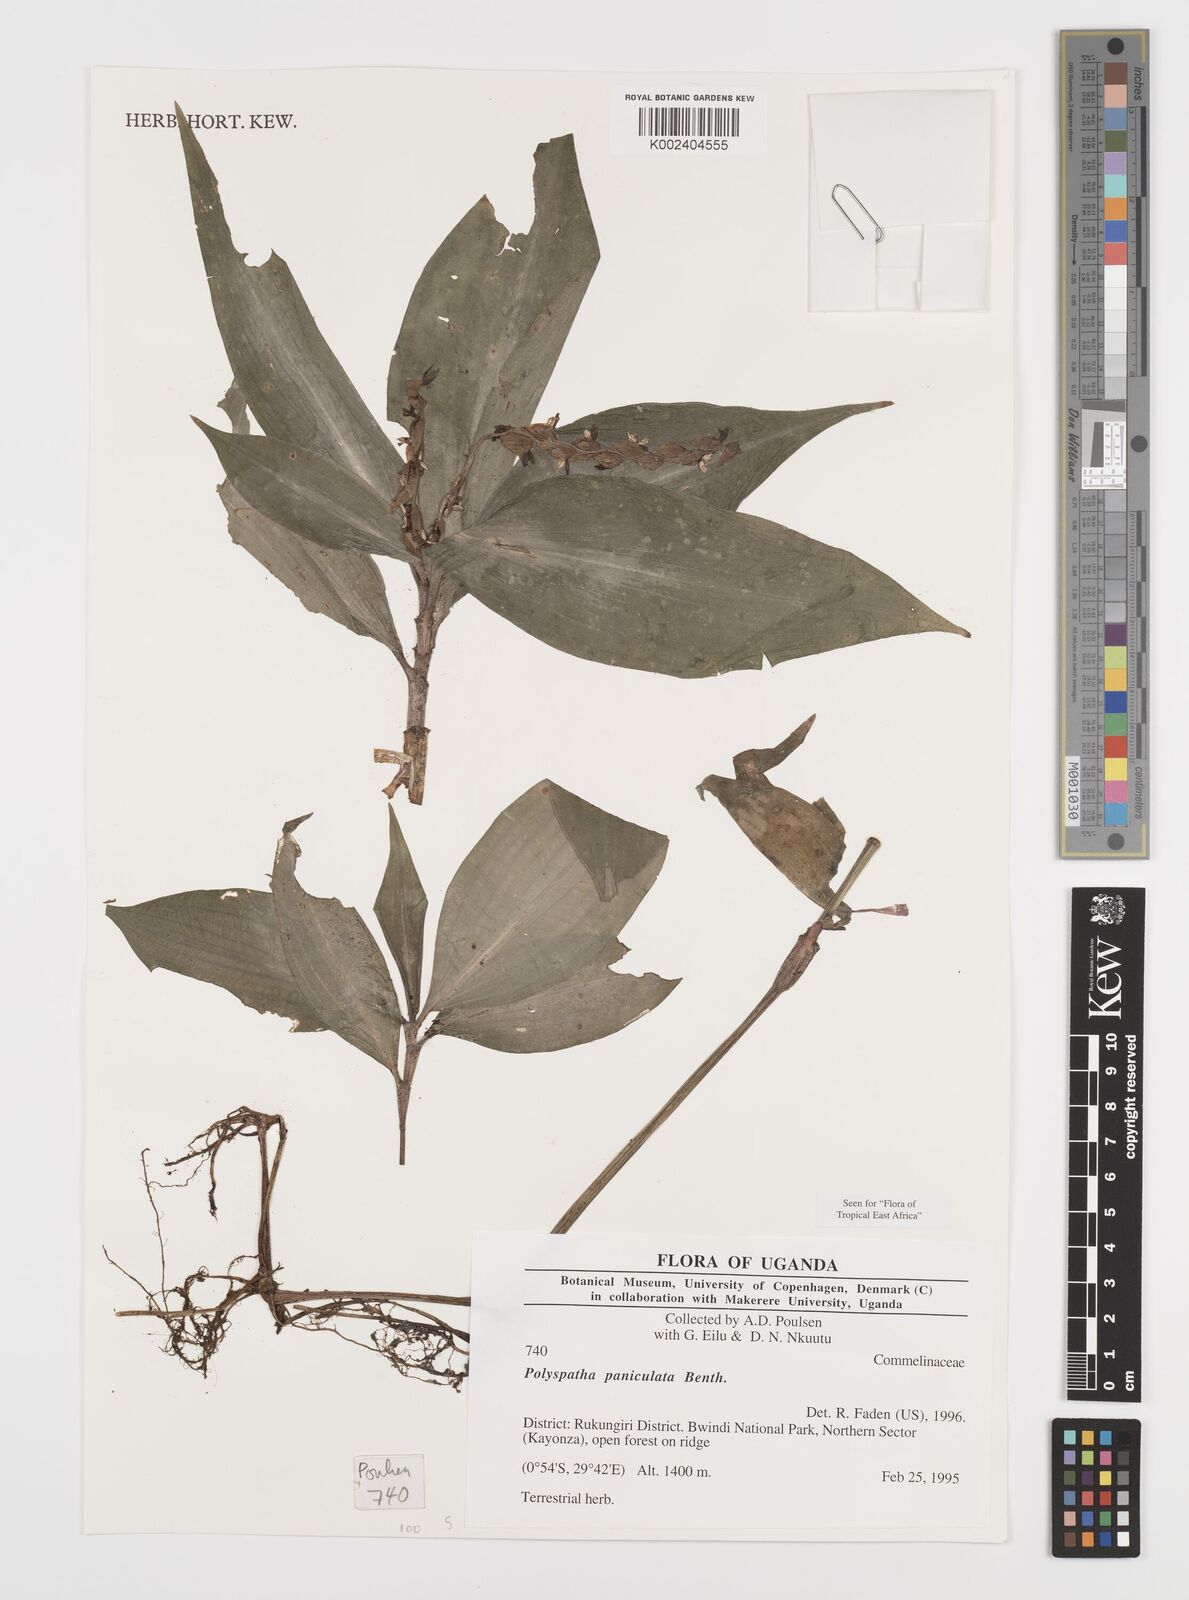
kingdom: Plantae
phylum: Tracheophyta
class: Liliopsida
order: Commelinales
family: Commelinaceae
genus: Polyspatha
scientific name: Polyspatha paniculata
